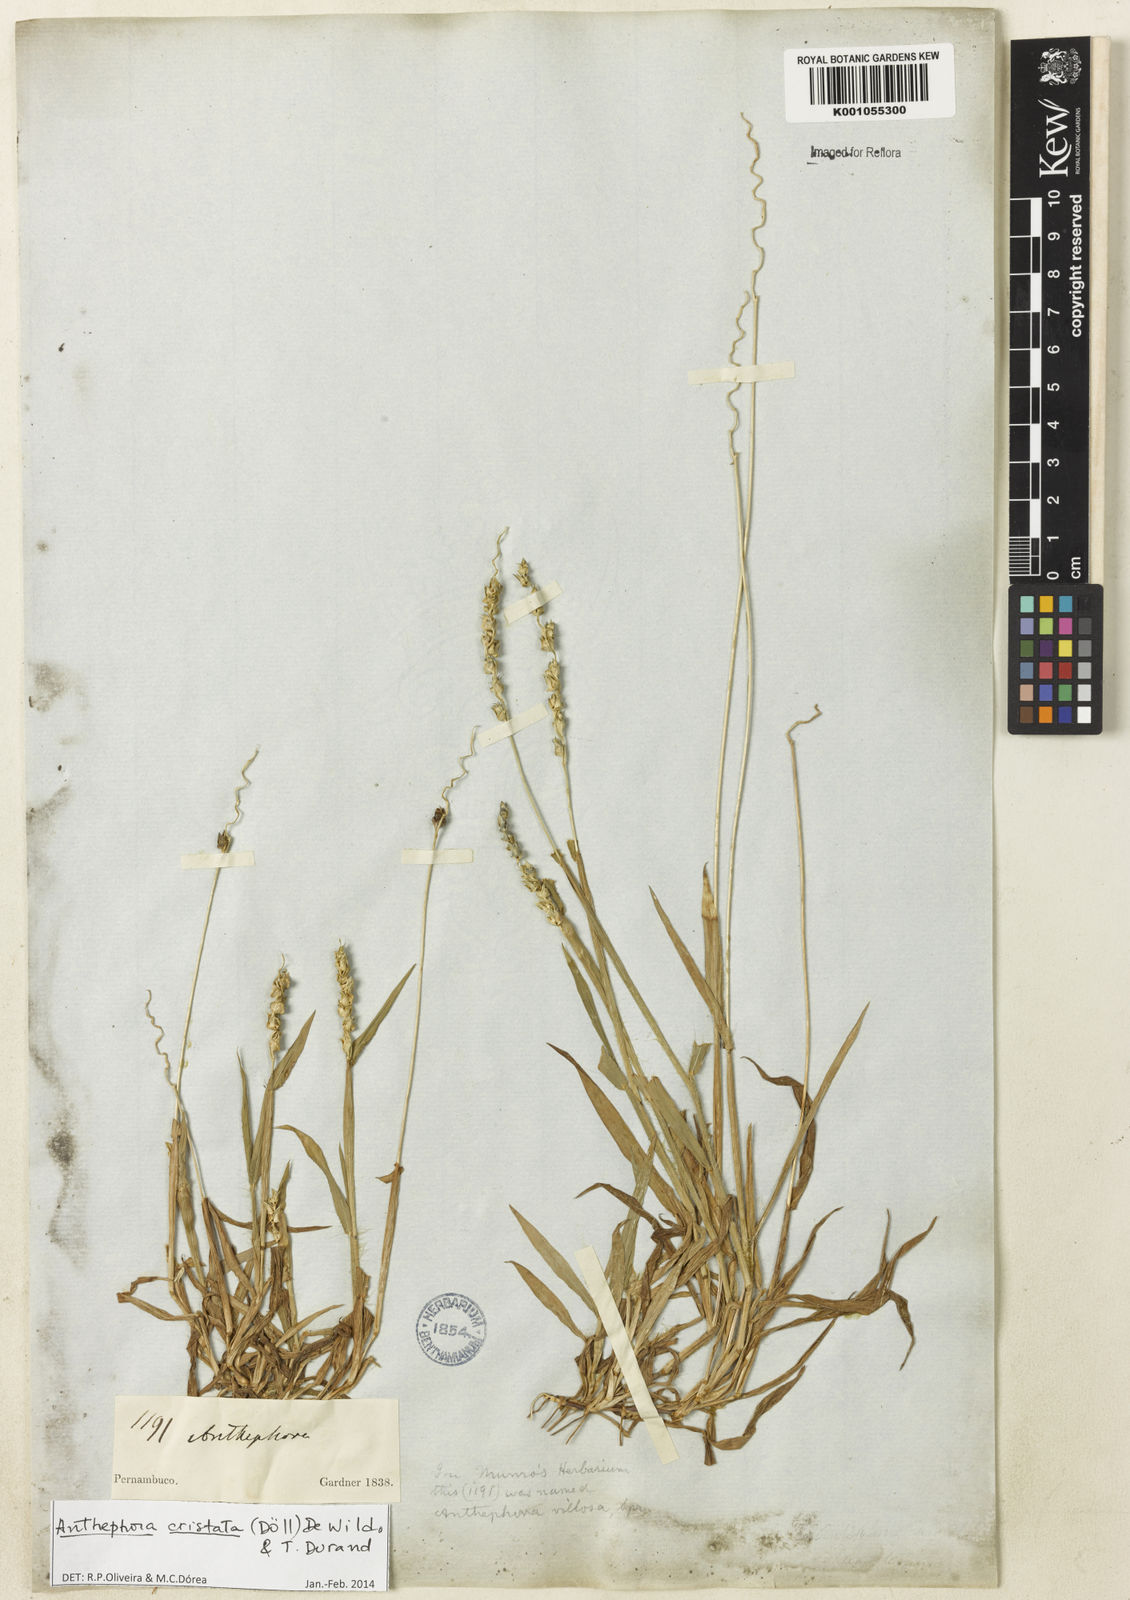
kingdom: Plantae
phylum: Tracheophyta
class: Liliopsida
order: Poales
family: Poaceae
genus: Anthephora
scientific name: Anthephora
